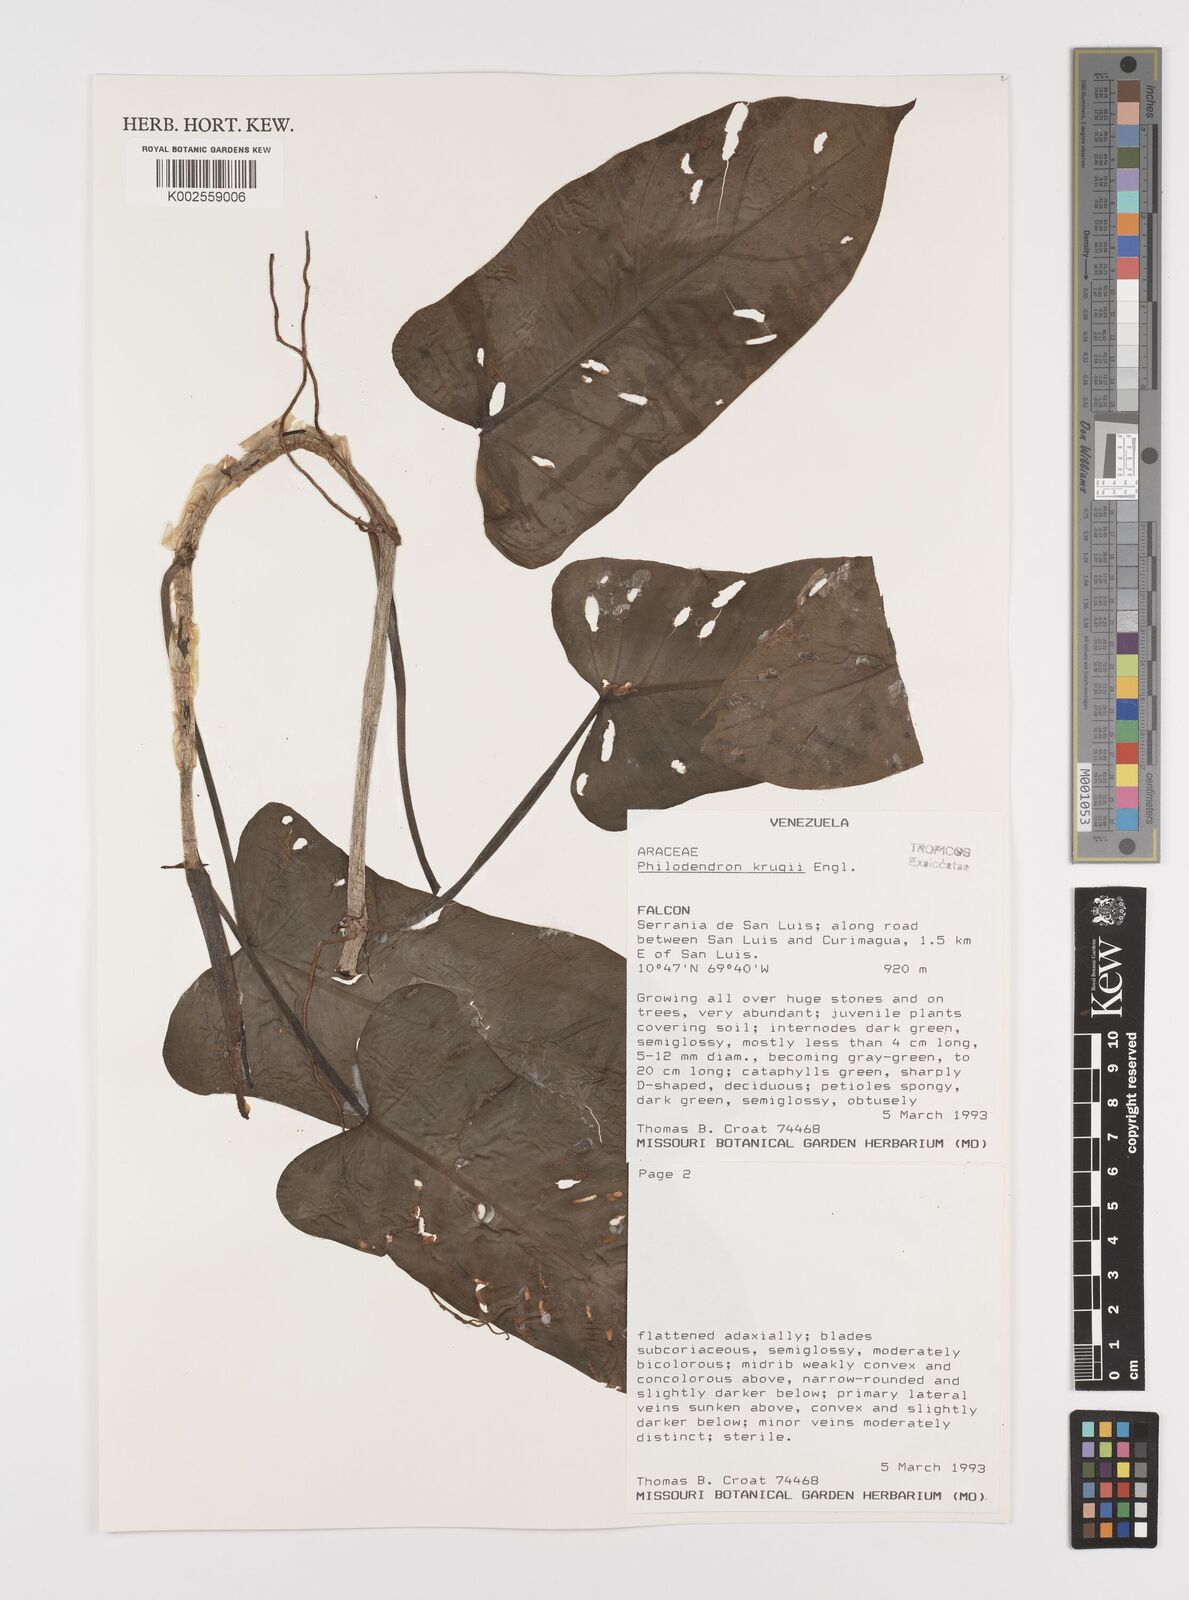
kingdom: Plantae
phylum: Tracheophyta
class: Liliopsida
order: Alismatales
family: Araceae
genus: Philodendron
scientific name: Philodendron krugii
